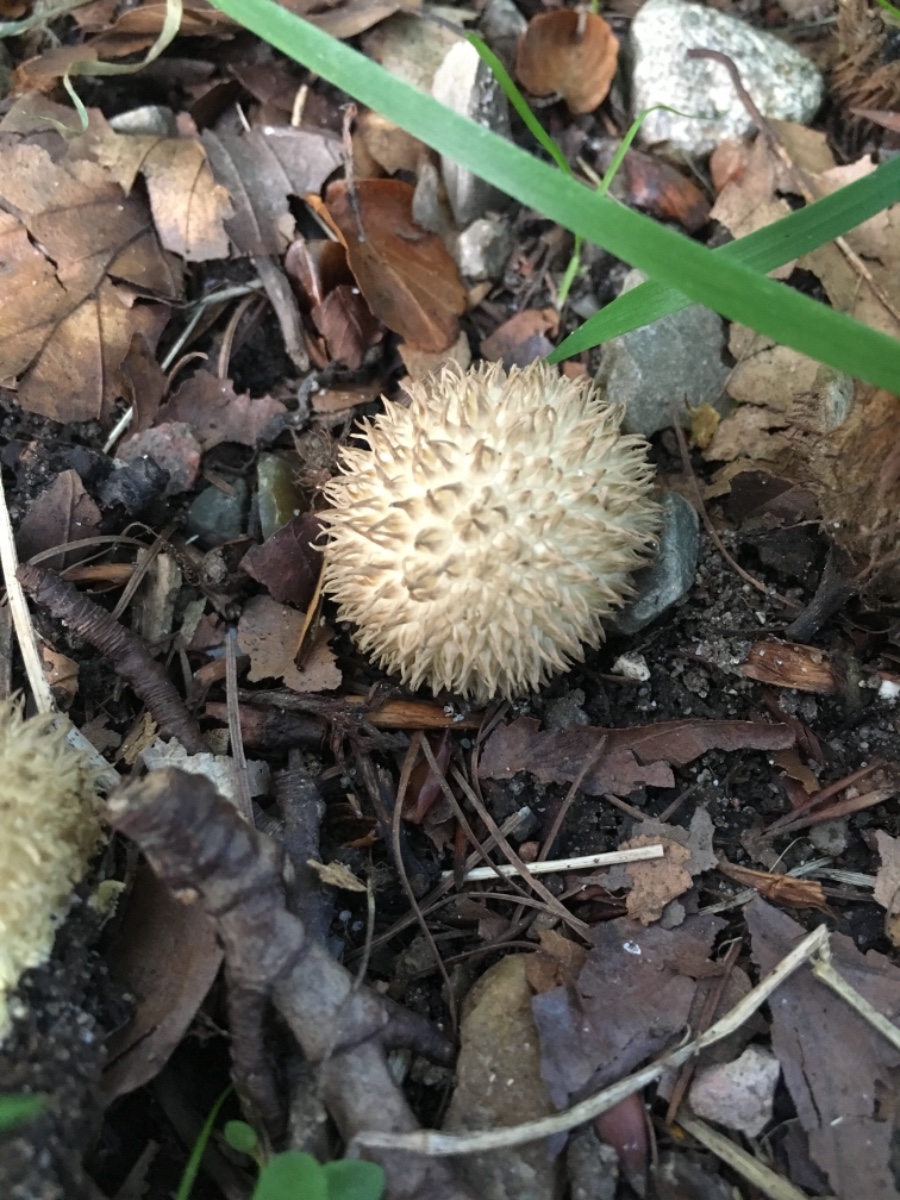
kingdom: Fungi
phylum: Basidiomycota
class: Agaricomycetes
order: Agaricales
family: Lycoperdaceae
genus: Lycoperdon
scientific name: Lycoperdon echinatum
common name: pindsvine-støvbold
